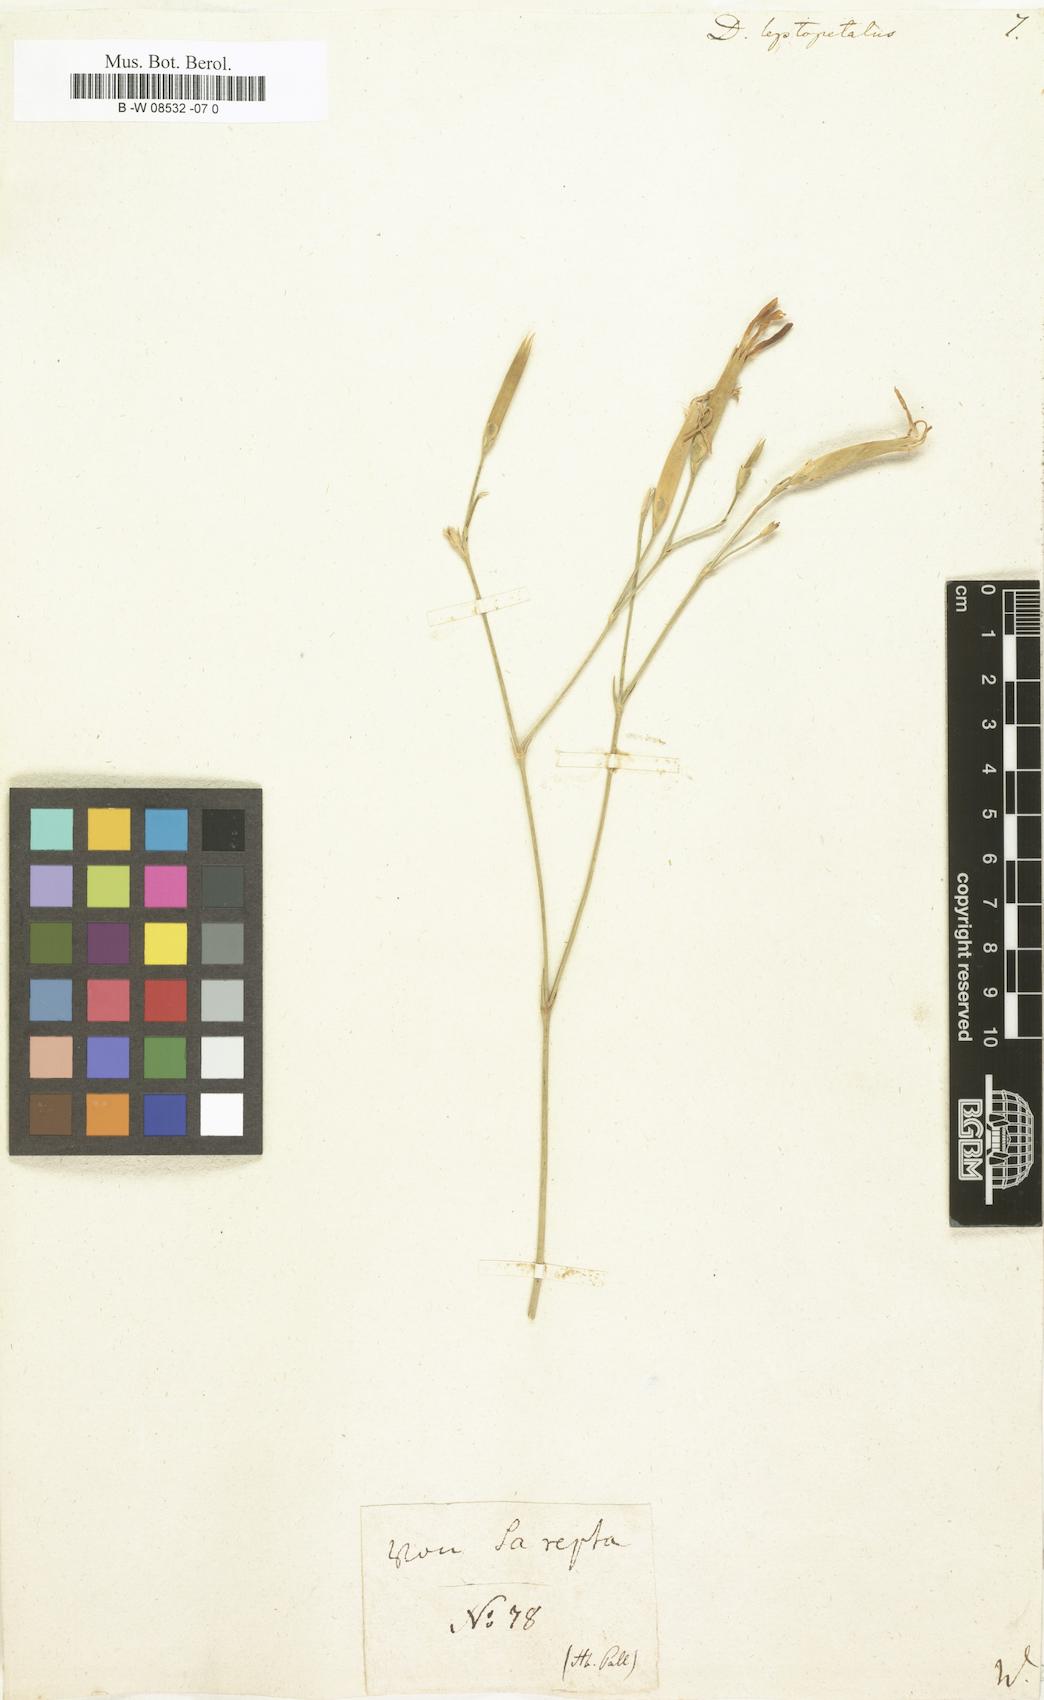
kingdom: Plantae
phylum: Tracheophyta
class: Magnoliopsida
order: Caryophyllales
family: Caryophyllaceae
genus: Dianthus
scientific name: Dianthus leptopetalus
